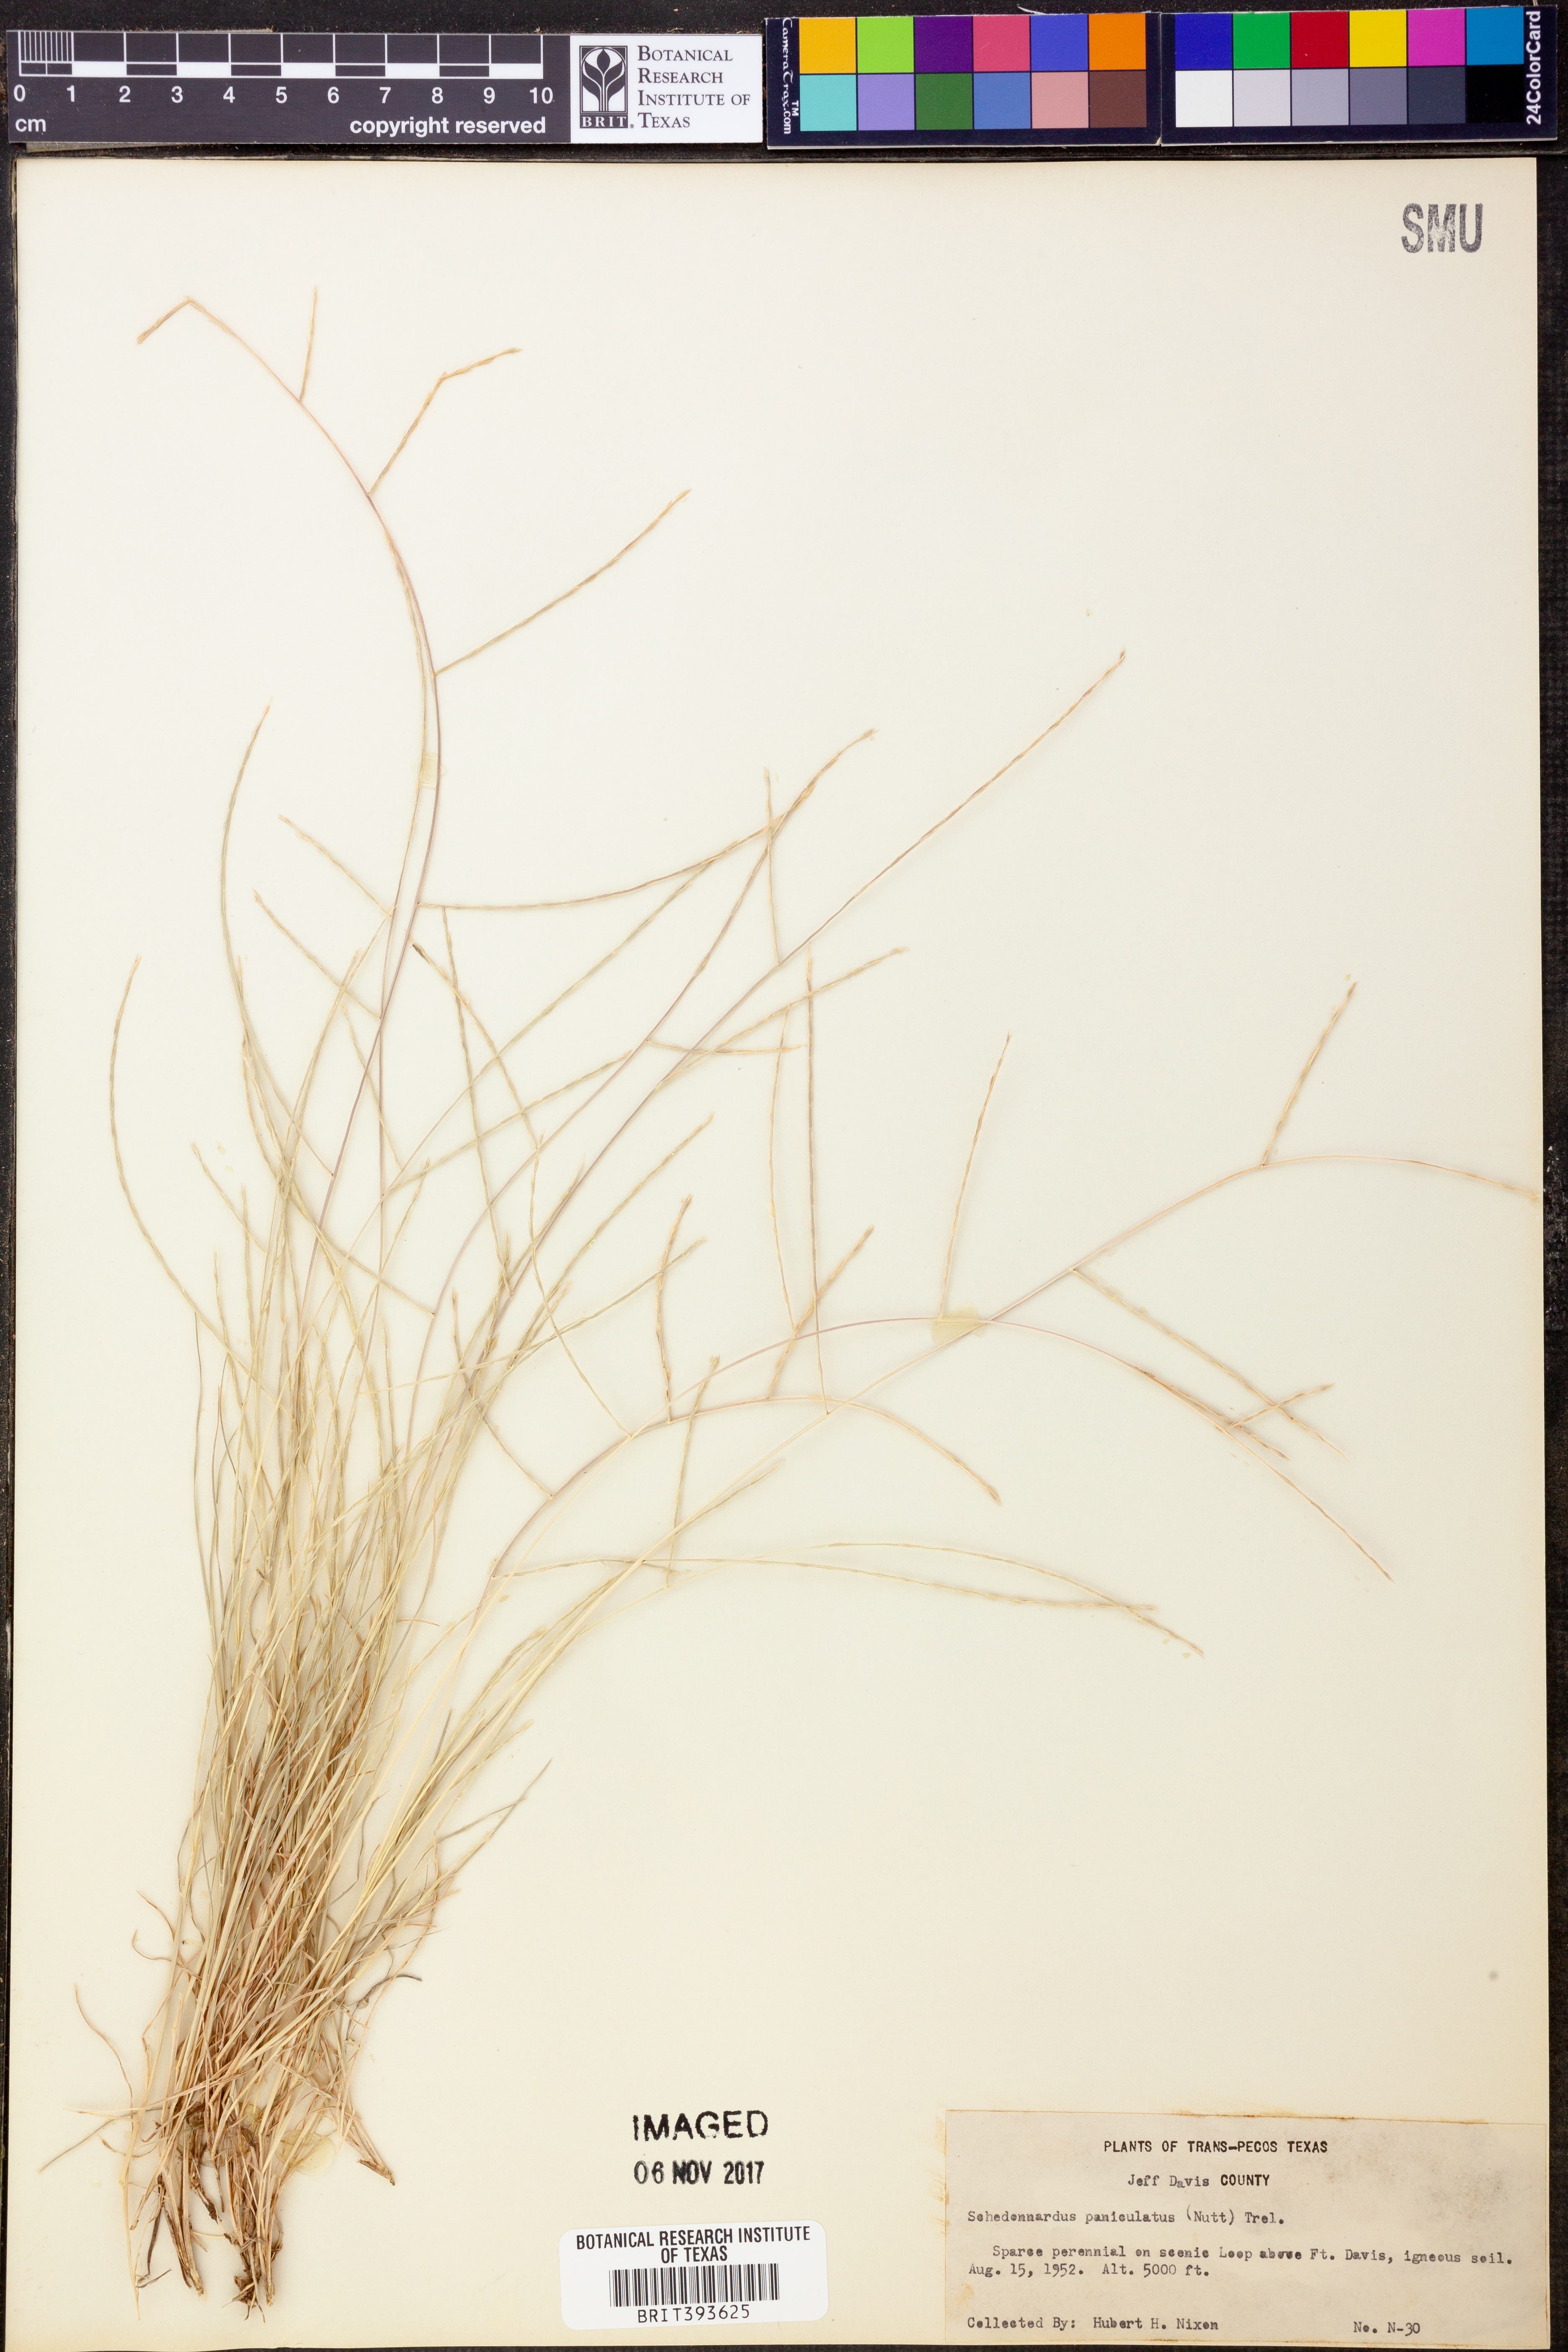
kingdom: Plantae
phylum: Tracheophyta
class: Liliopsida
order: Poales
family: Poaceae
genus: Muhlenbergia
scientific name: Muhlenbergia paniculata
